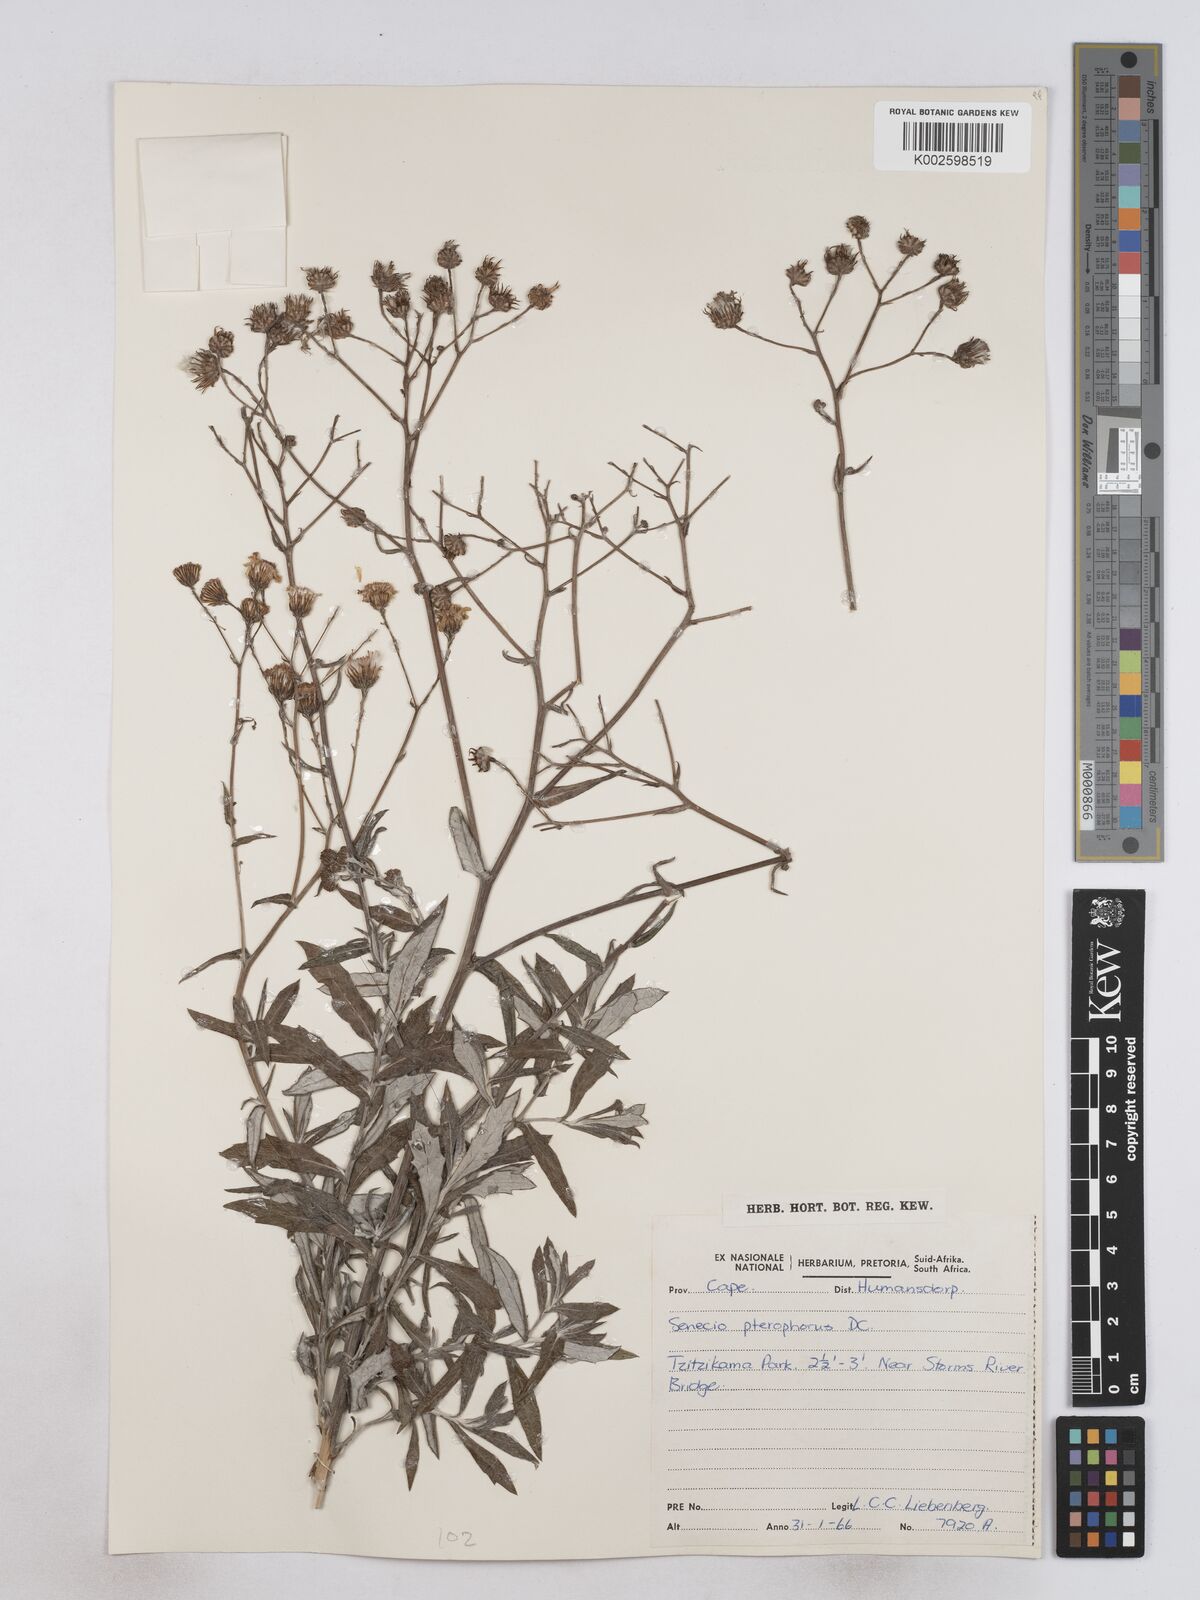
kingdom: Plantae
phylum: Tracheophyta
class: Magnoliopsida
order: Asterales
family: Asteraceae
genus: Senecio
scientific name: Senecio ilicifolius
